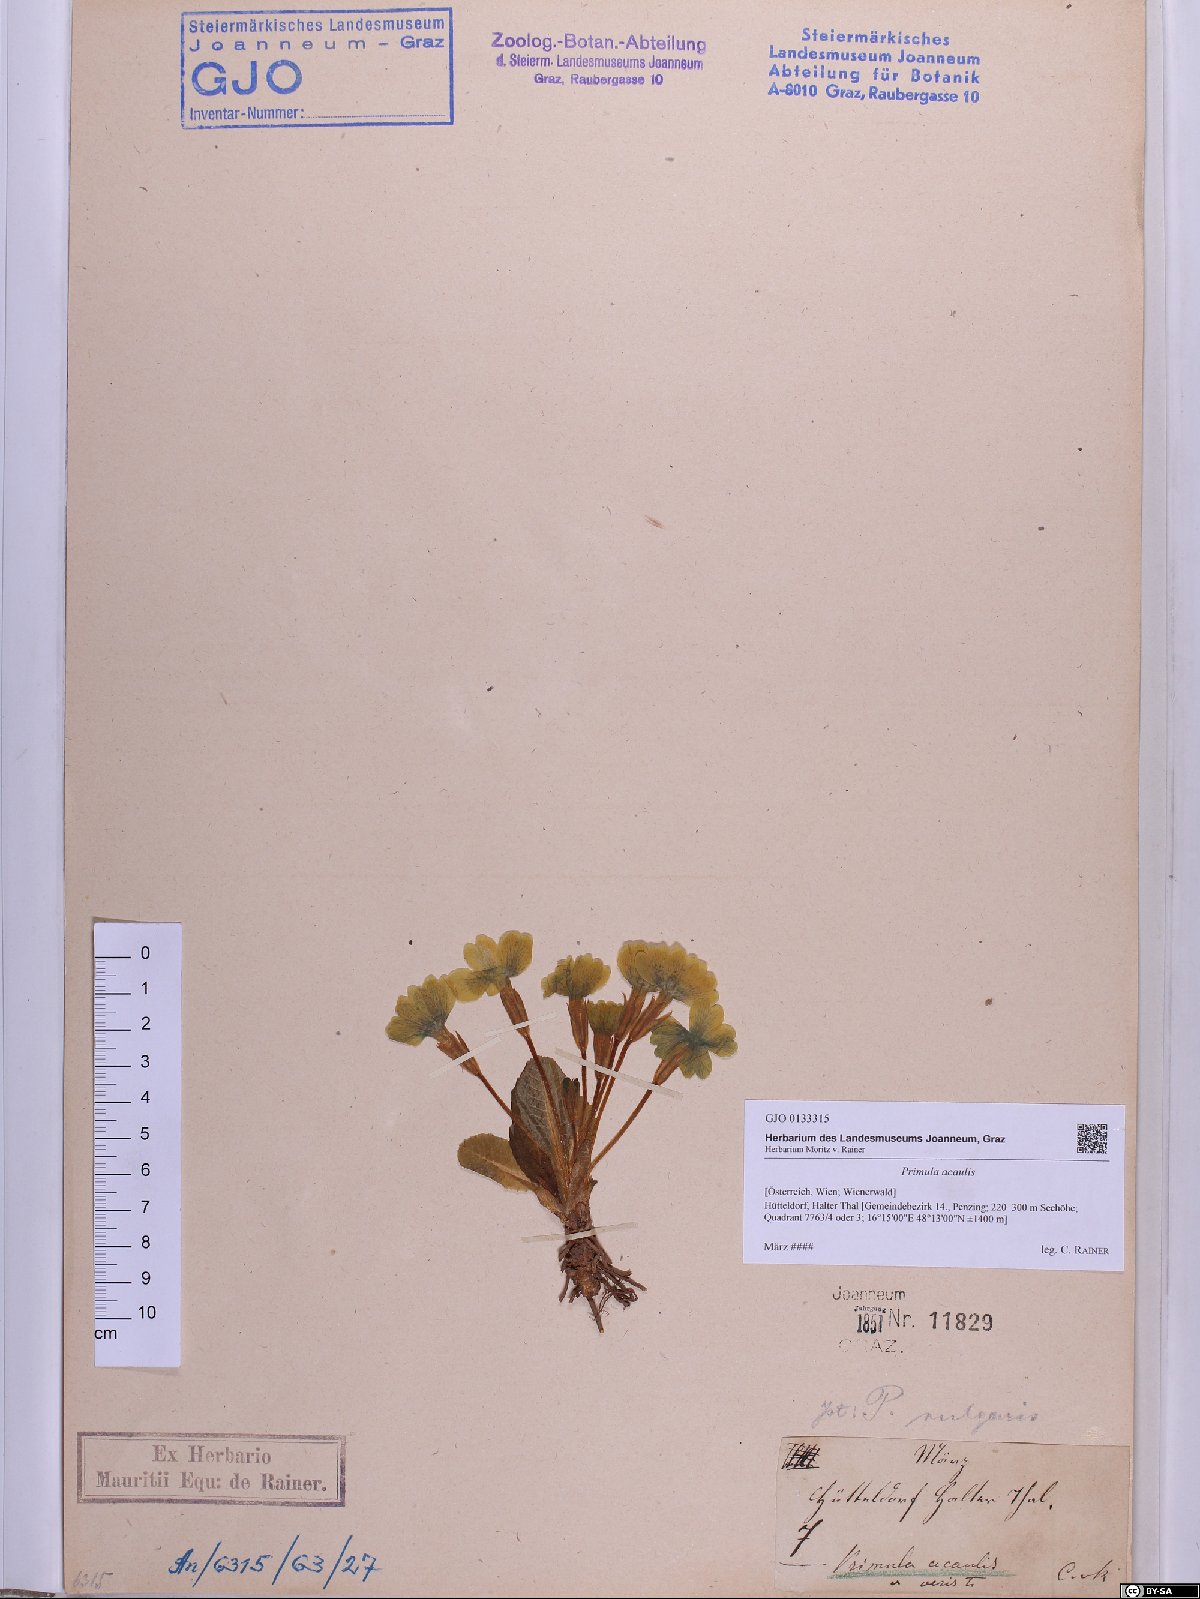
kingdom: Plantae
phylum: Tracheophyta
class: Magnoliopsida
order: Ericales
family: Primulaceae
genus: Primula
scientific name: Primula vulgaris
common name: Primrose
